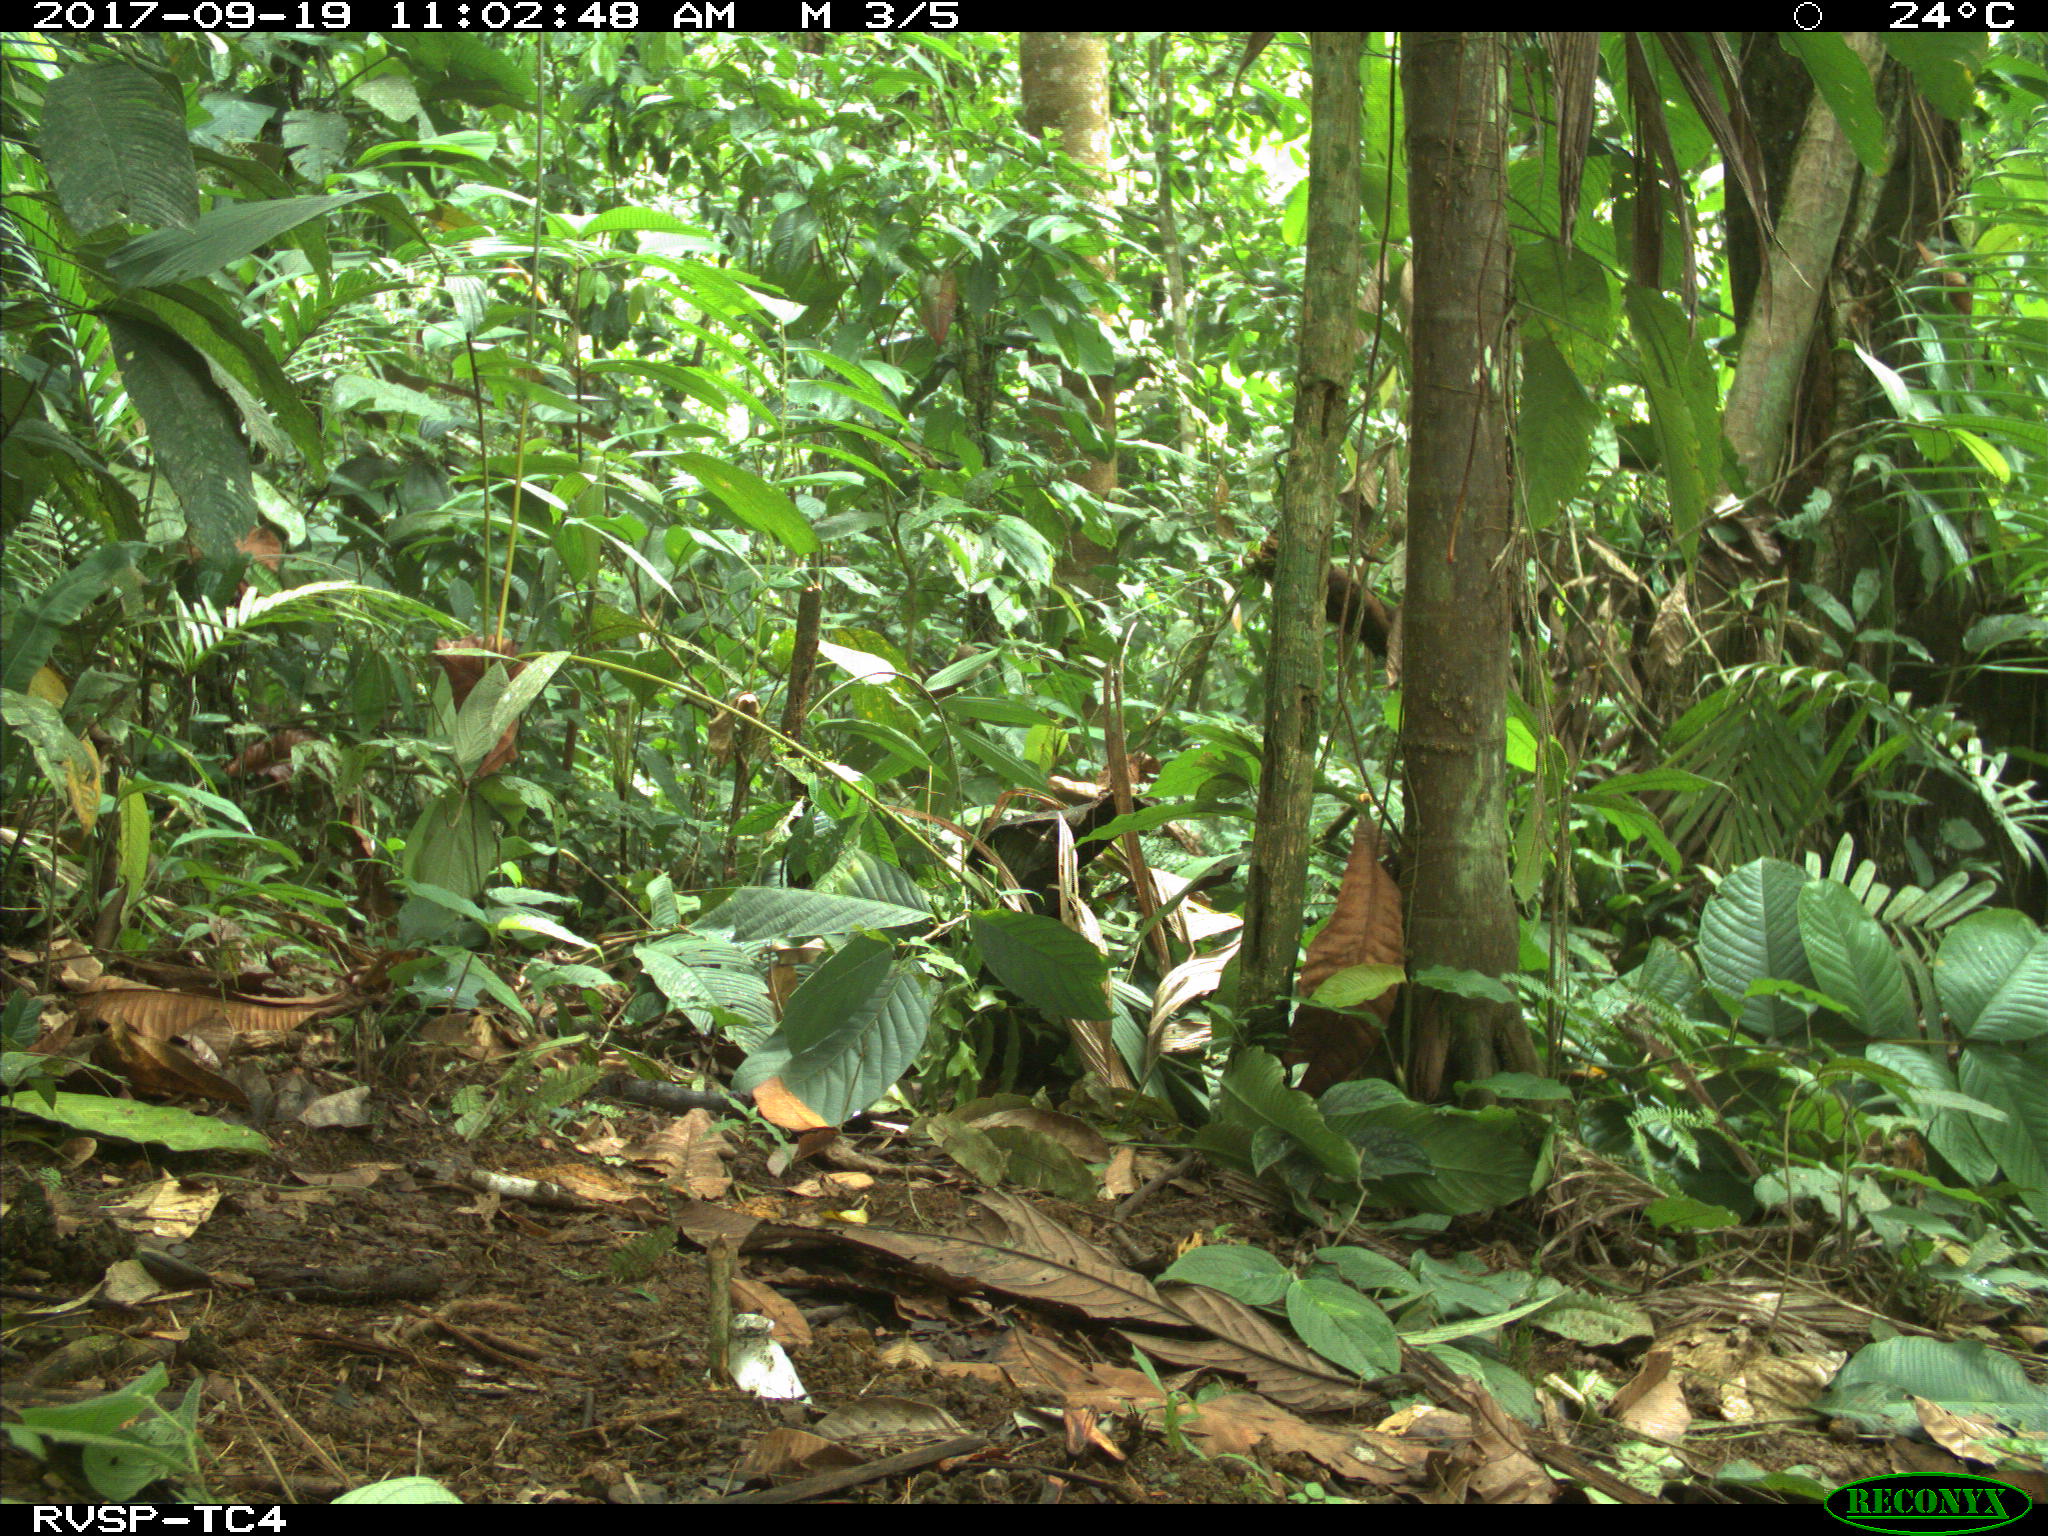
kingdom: Animalia
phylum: Chordata
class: Mammalia
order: Rodentia
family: Dasyproctidae
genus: Dasyprocta
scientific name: Dasyprocta punctata
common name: Central american agouti
